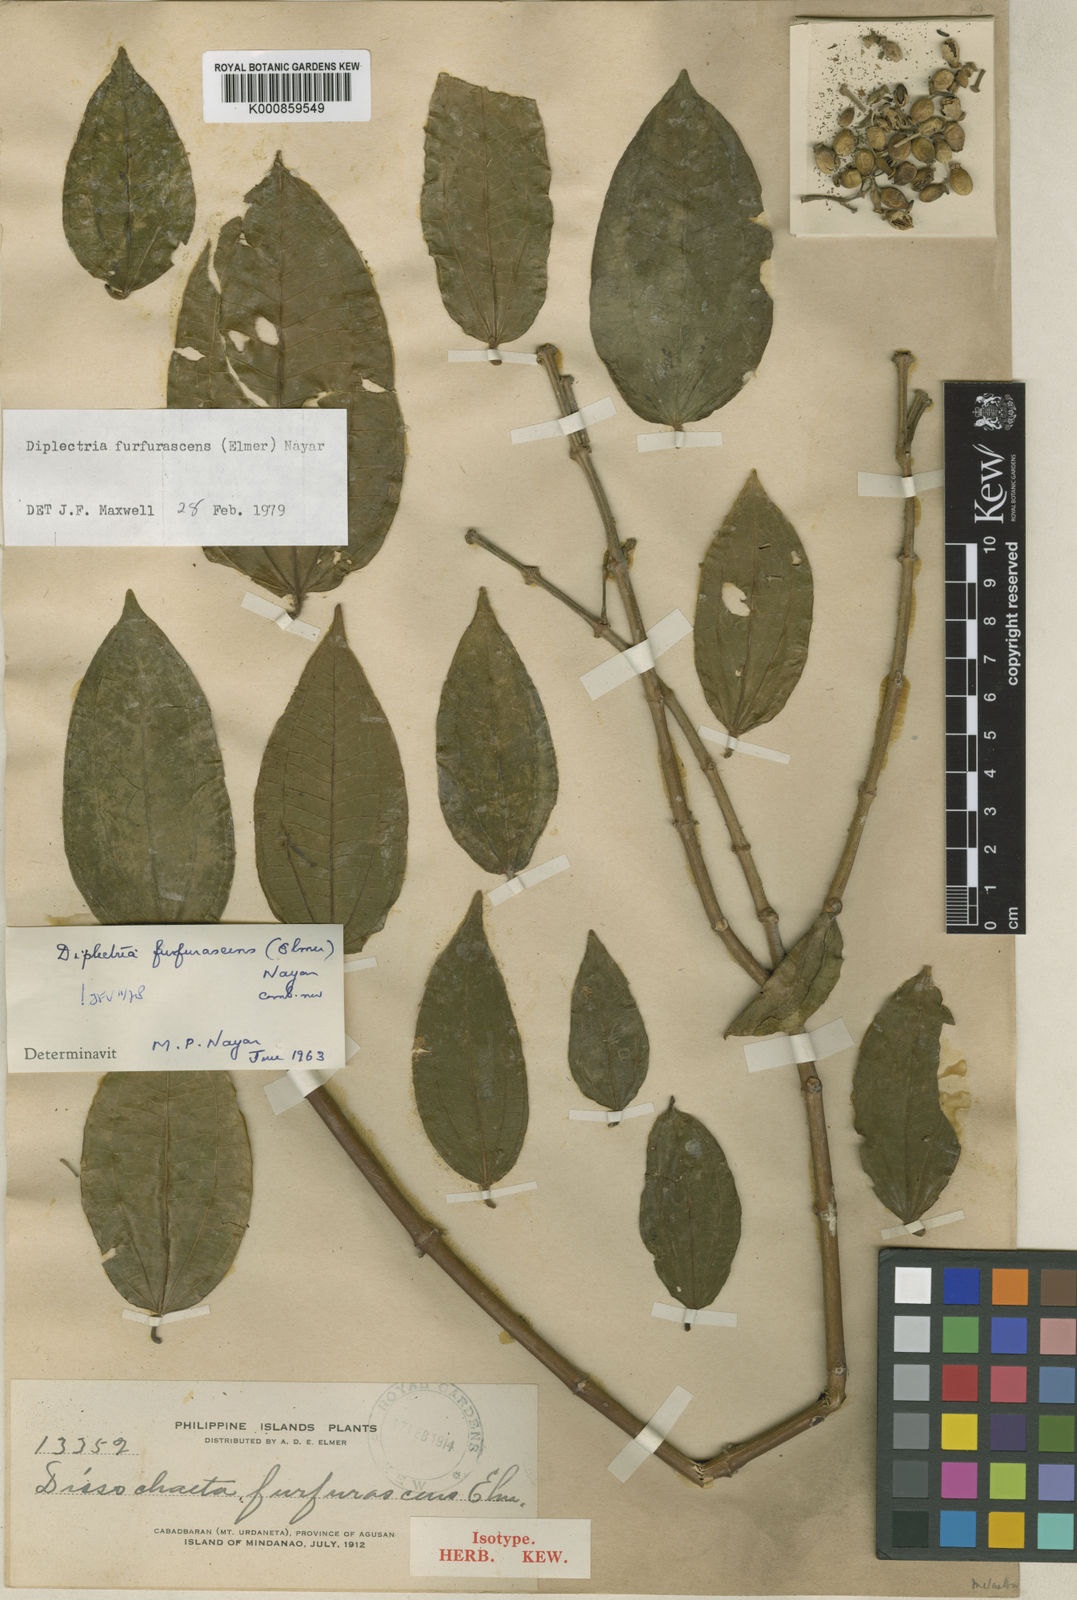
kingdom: Plantae
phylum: Tracheophyta
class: Magnoliopsida
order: Myrtales
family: Melastomataceae
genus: Diplectria
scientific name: Diplectria divaricata
